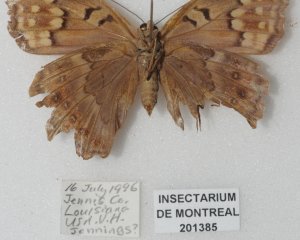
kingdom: Animalia
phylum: Arthropoda
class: Insecta
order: Lepidoptera
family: Nymphalidae
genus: Asterocampa
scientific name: Asterocampa clyton
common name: Tawny Emperor
